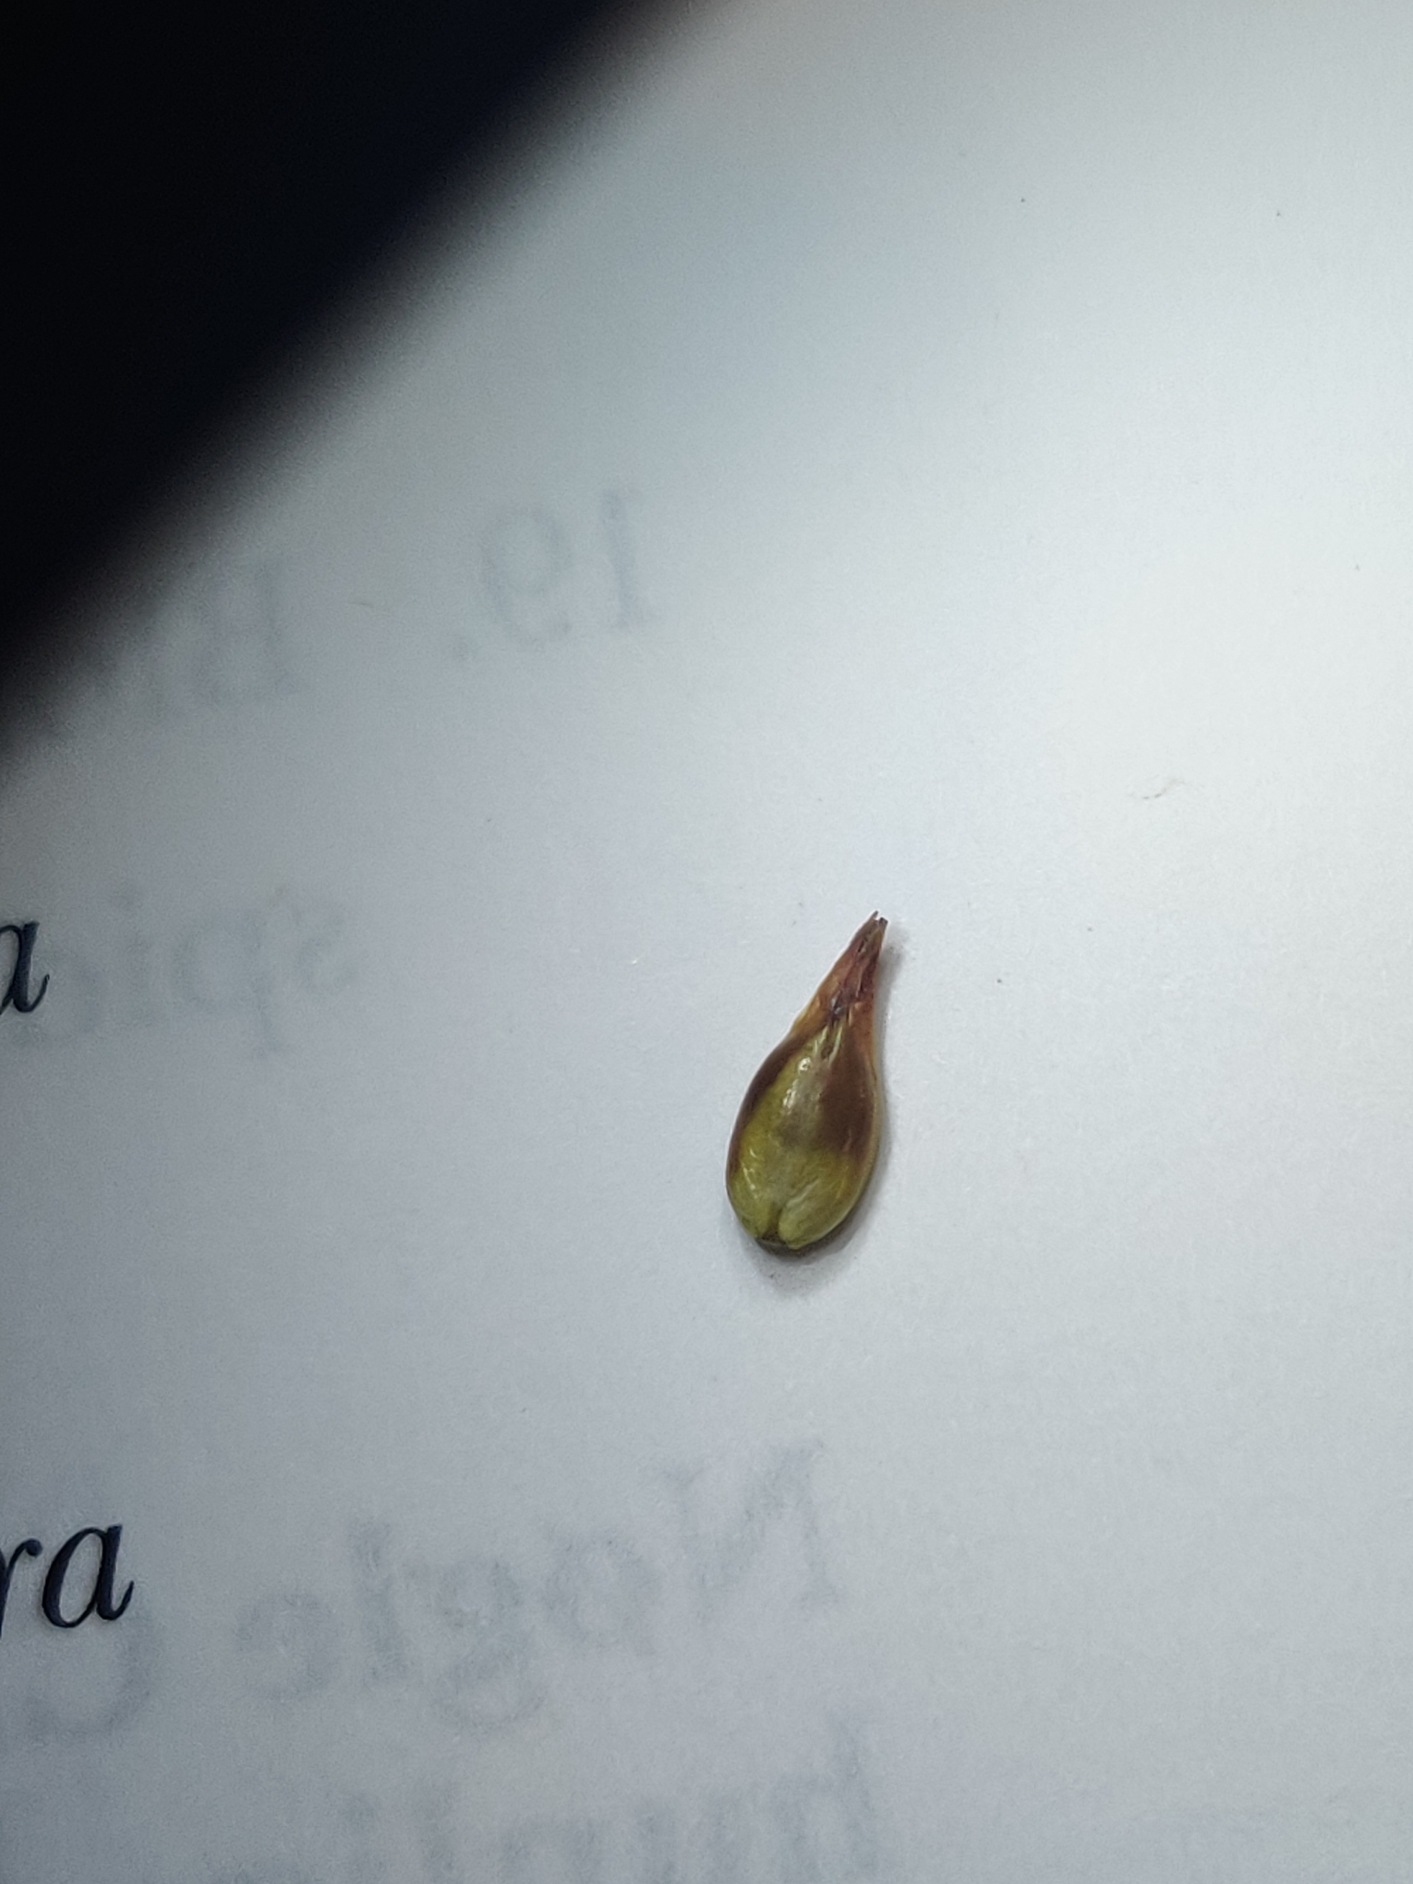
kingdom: Plantae
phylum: Tracheophyta
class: Liliopsida
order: Poales
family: Cyperaceae
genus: Carex
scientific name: Carex spicata
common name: Spidskapslet star
